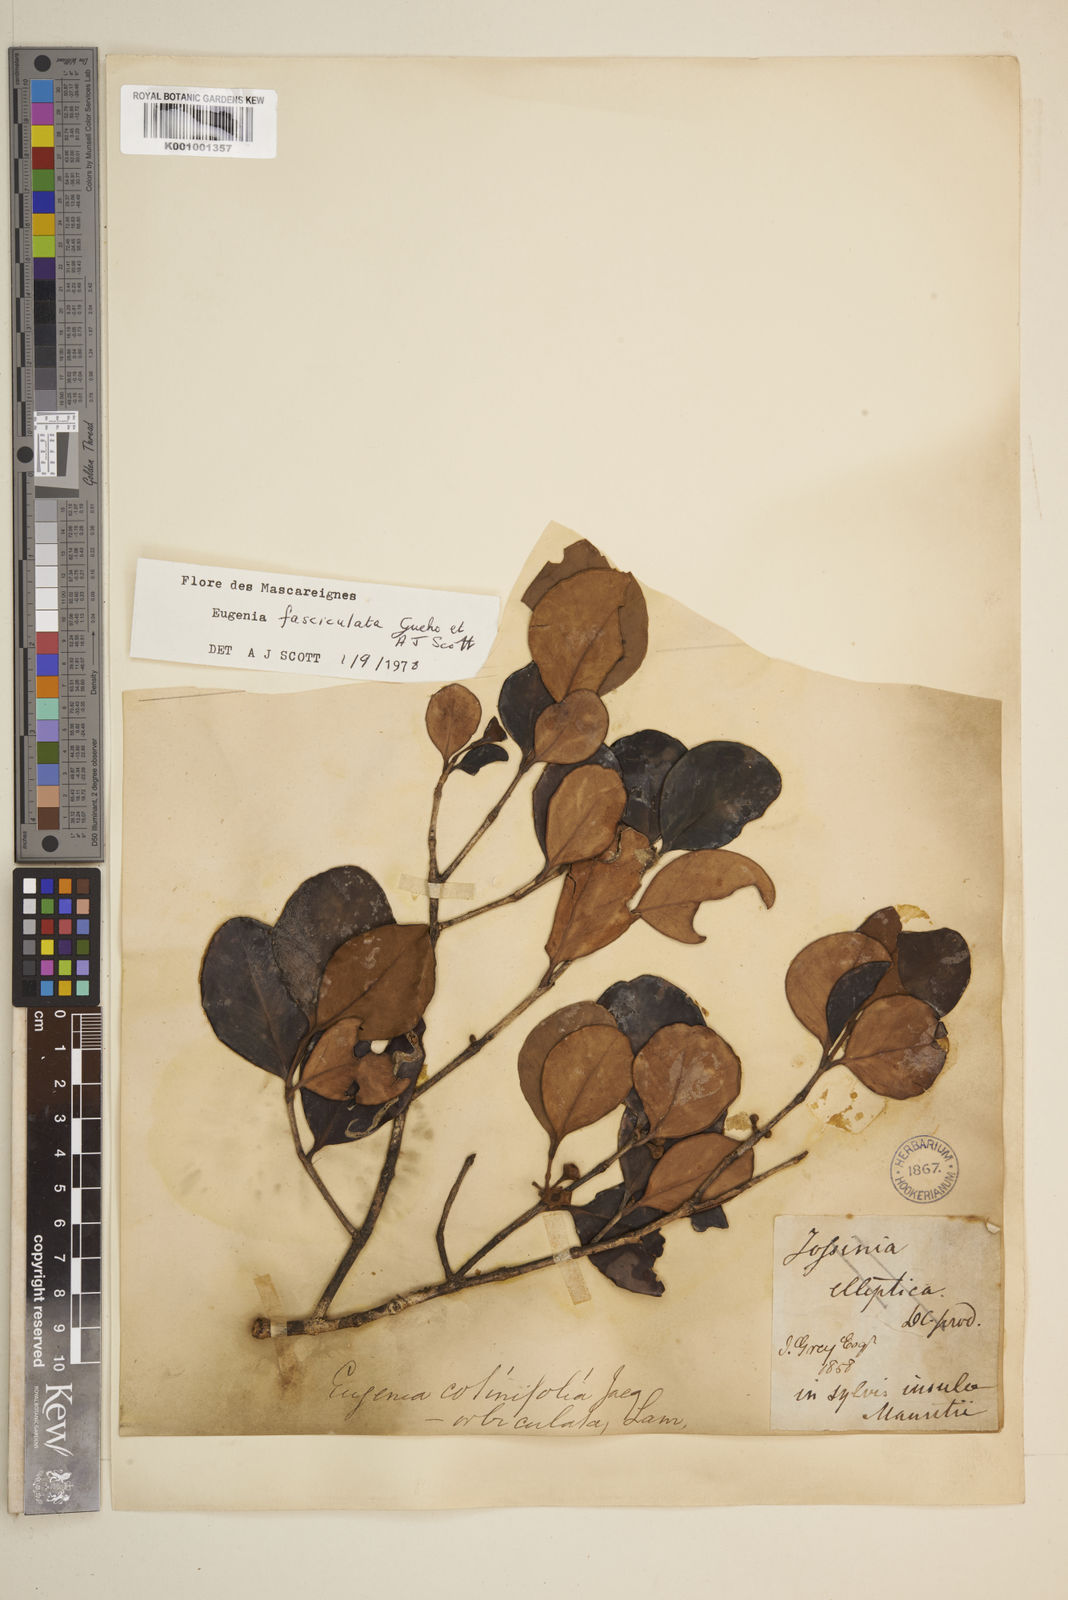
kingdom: Plantae
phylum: Tracheophyta
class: Magnoliopsida
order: Myrtales
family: Myrtaceae
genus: Eugenia
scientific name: Eugenia roxburghii
